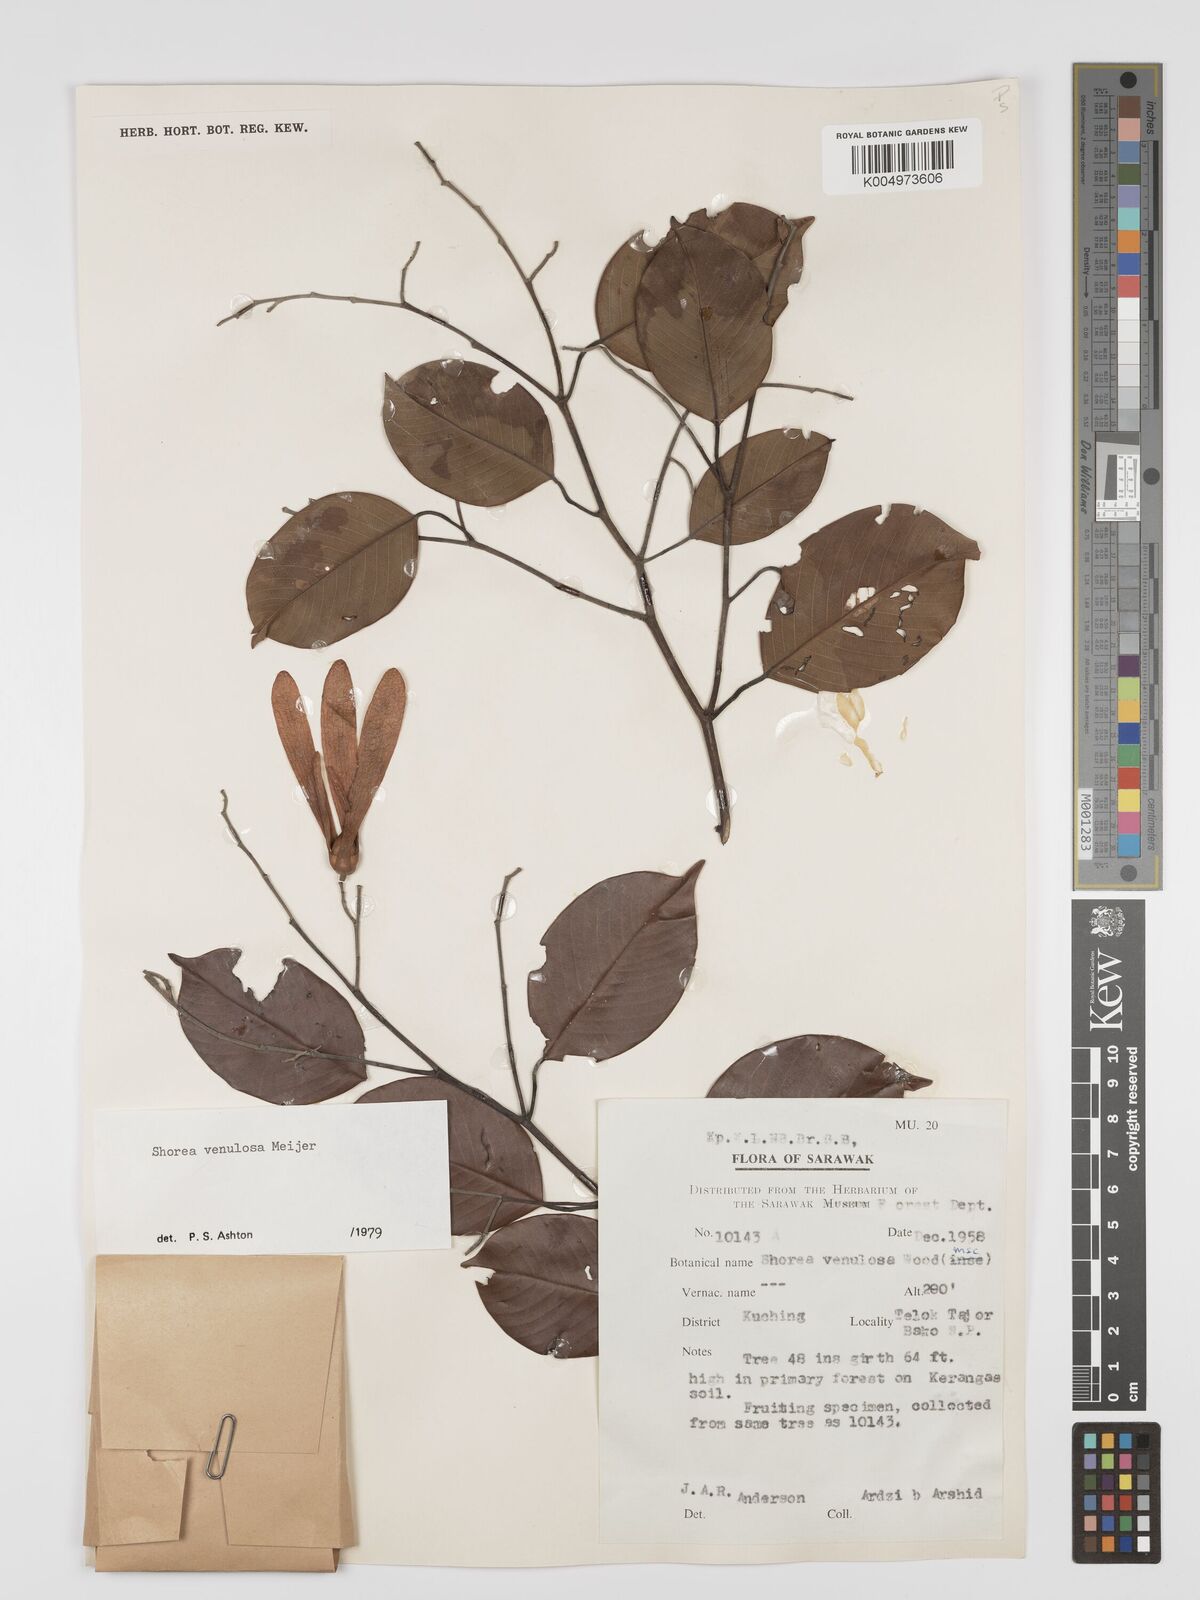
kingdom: Plantae
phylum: Tracheophyta
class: Magnoliopsida
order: Malvales
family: Dipterocarpaceae
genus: Shorea
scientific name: Shorea venulosa
